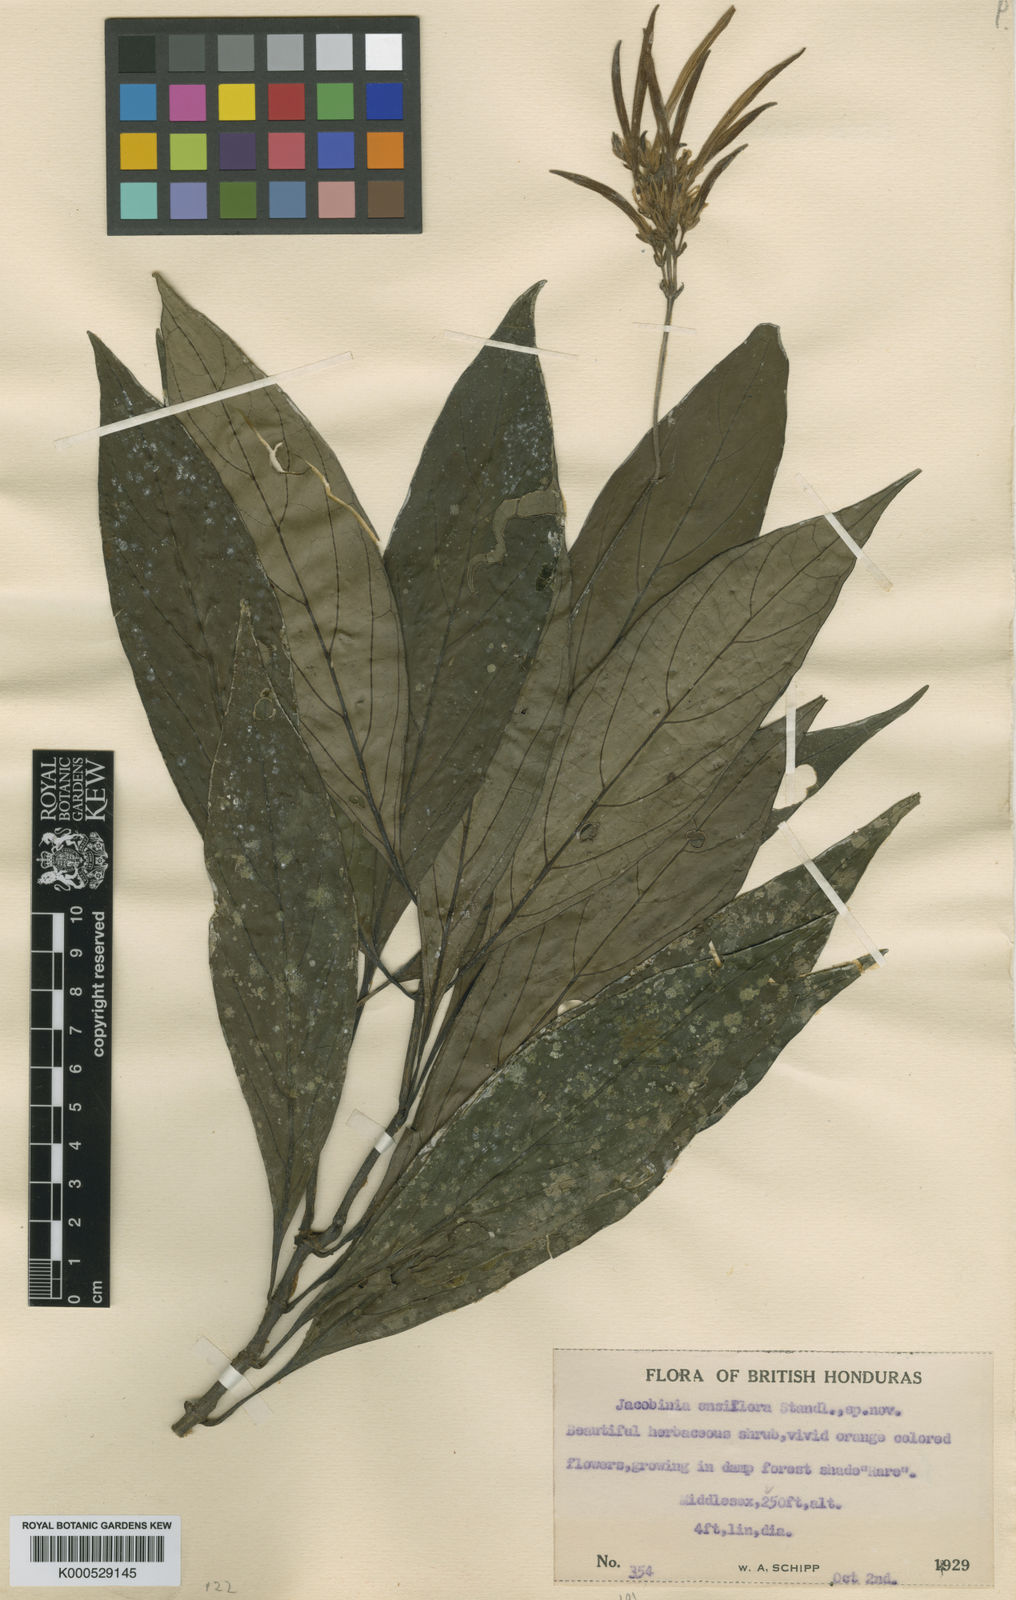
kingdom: Plantae
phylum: Tracheophyta
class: Magnoliopsida
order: Lamiales
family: Acanthaceae
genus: Justicia
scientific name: Justicia ensiflora
